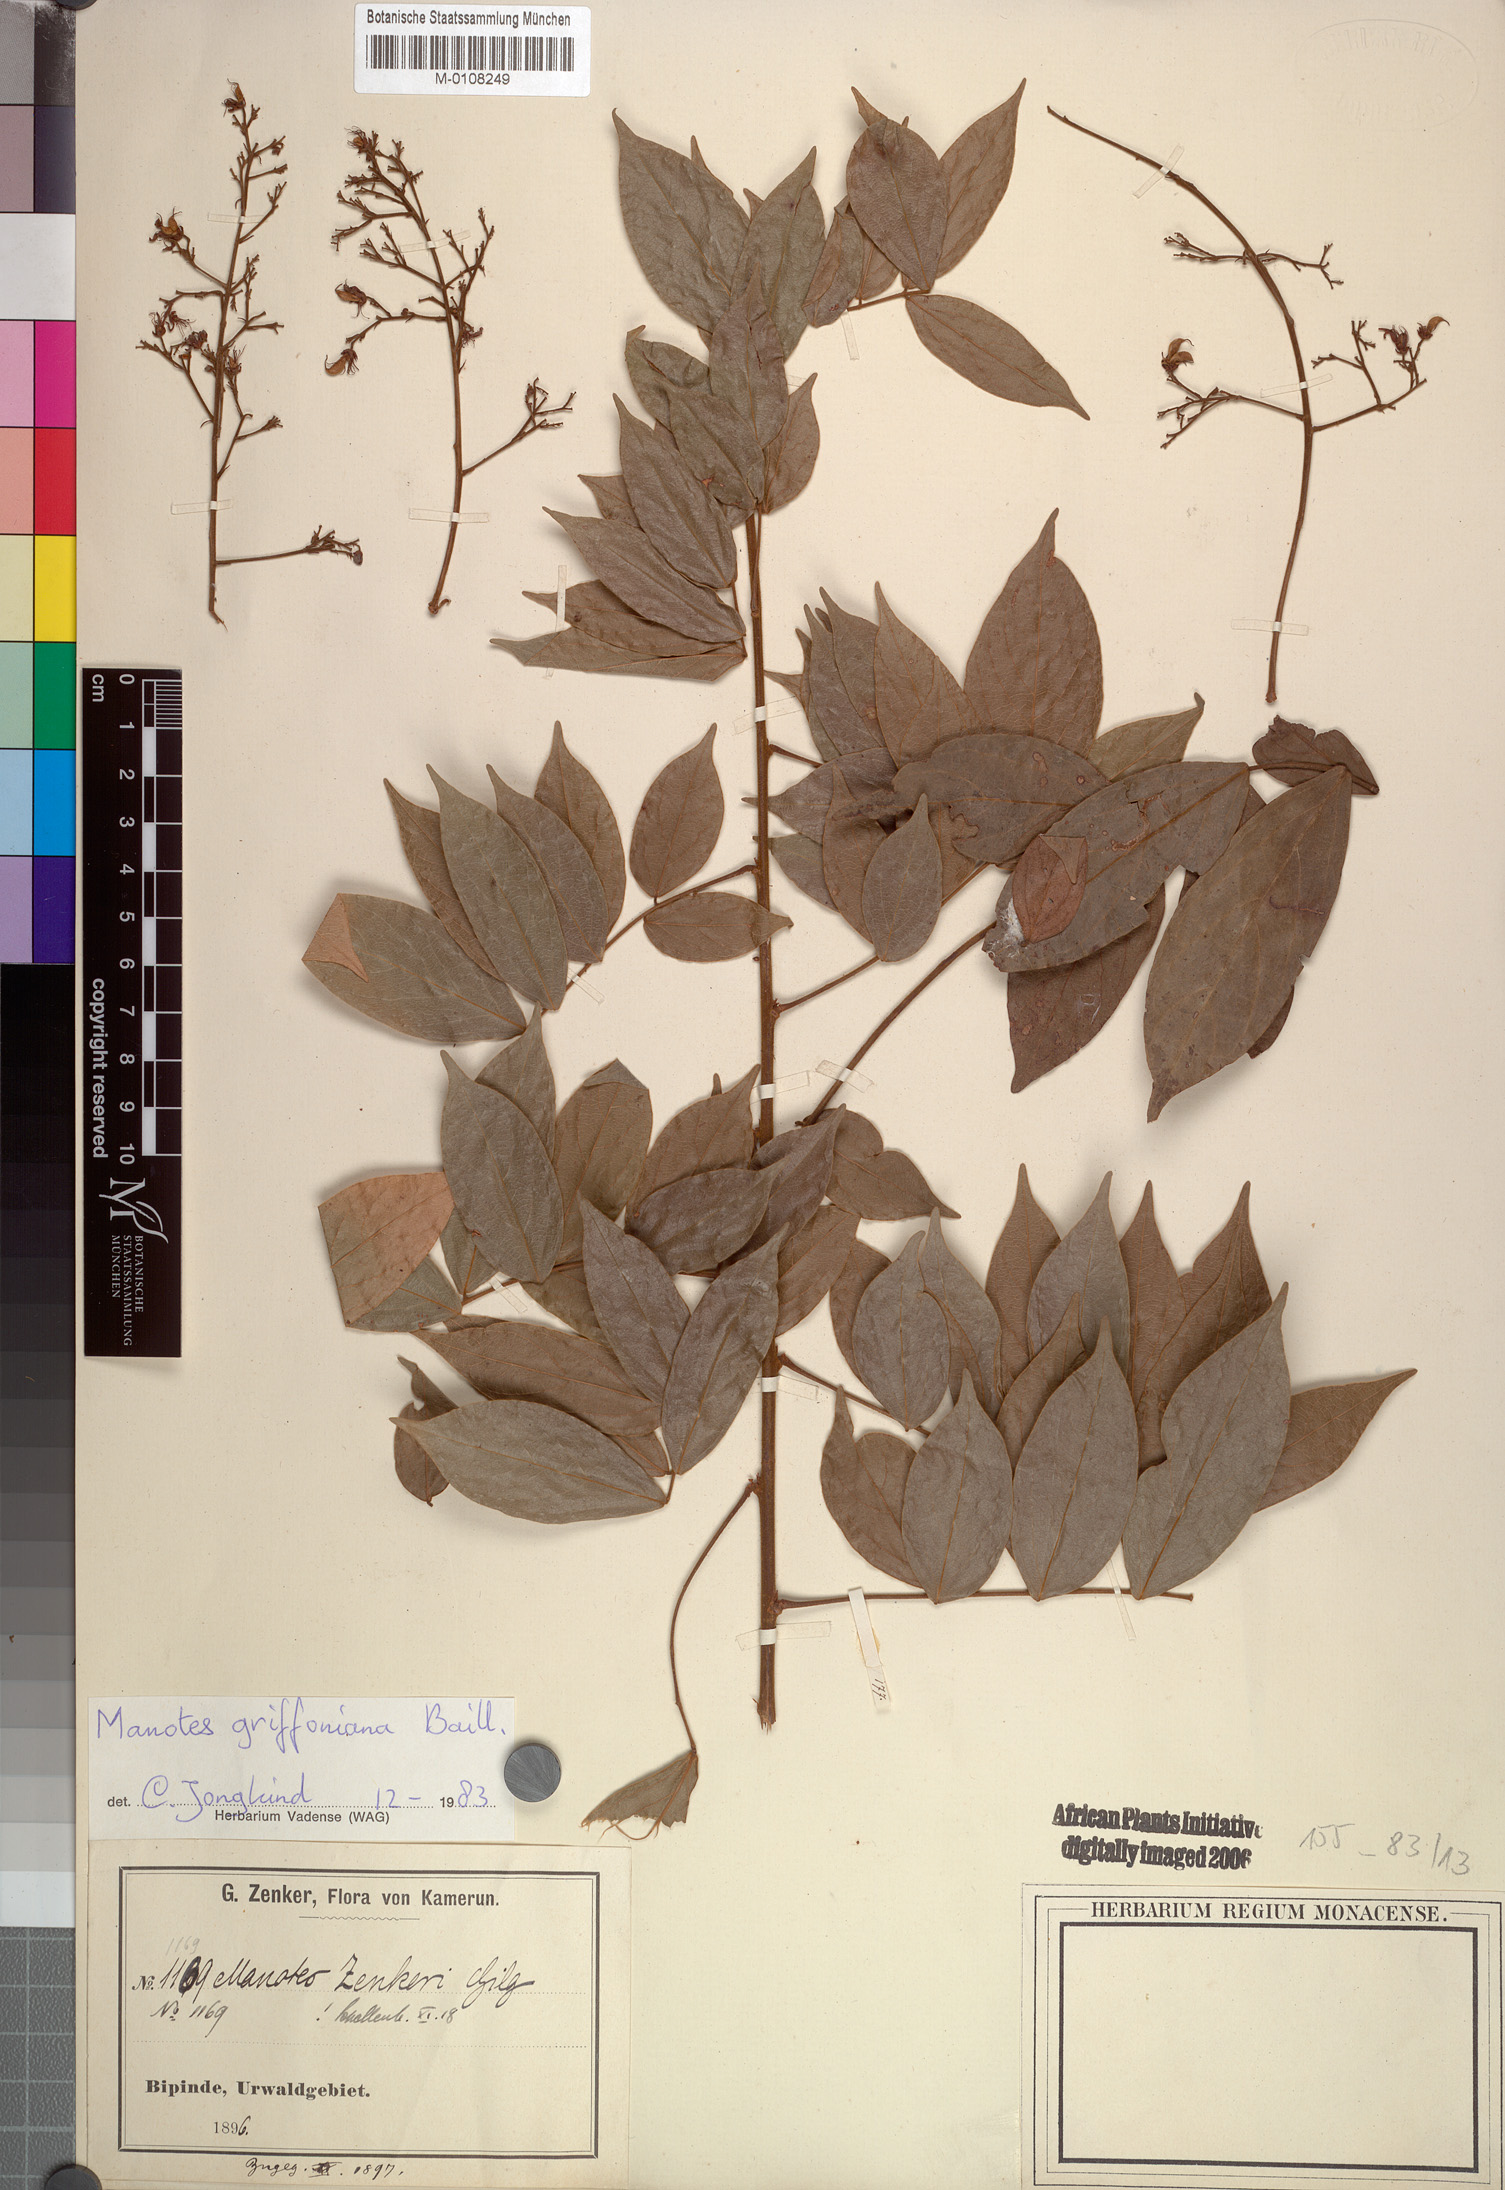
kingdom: Plantae
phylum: Tracheophyta
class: Magnoliopsida
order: Oxalidales
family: Connaraceae
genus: Manotes
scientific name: Manotes griffoniana
